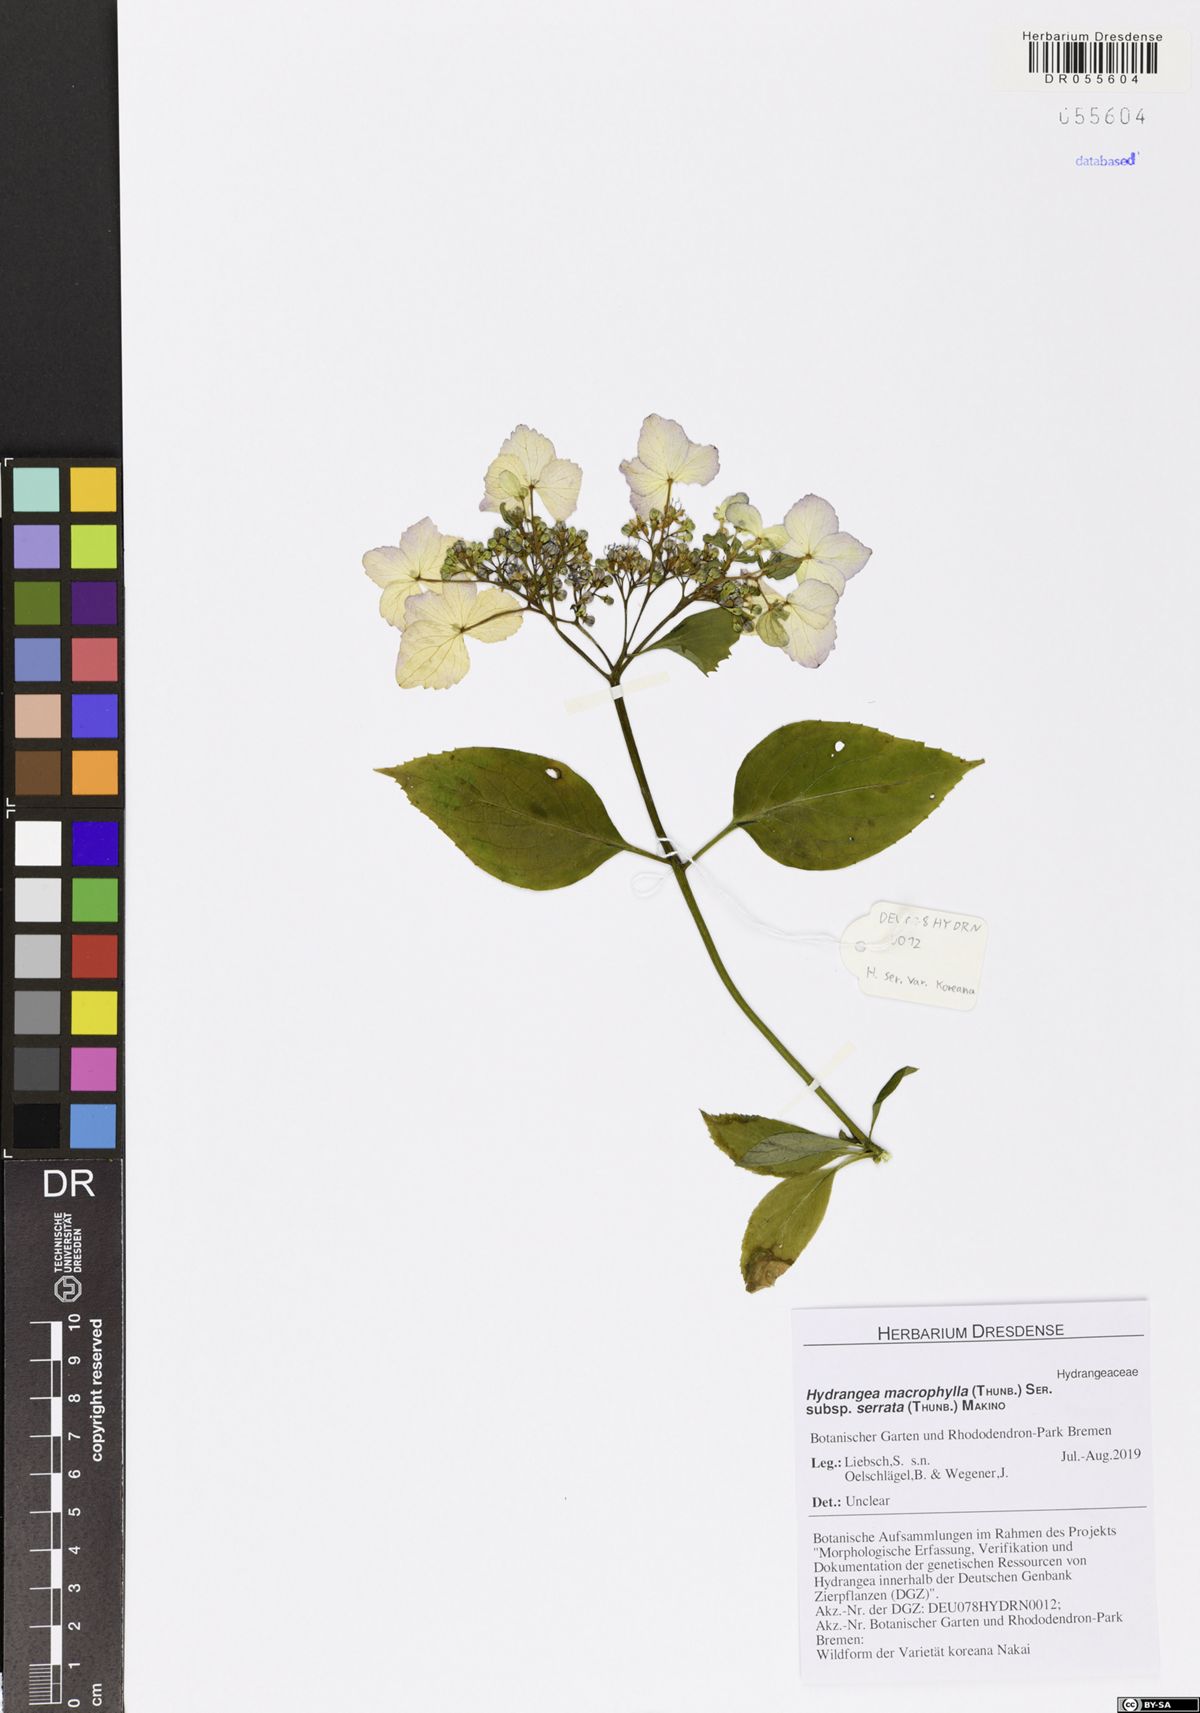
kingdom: Plantae
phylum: Tracheophyta
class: Magnoliopsida
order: Cornales
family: Hydrangeaceae
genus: Hydrangea
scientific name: Hydrangea serrata
